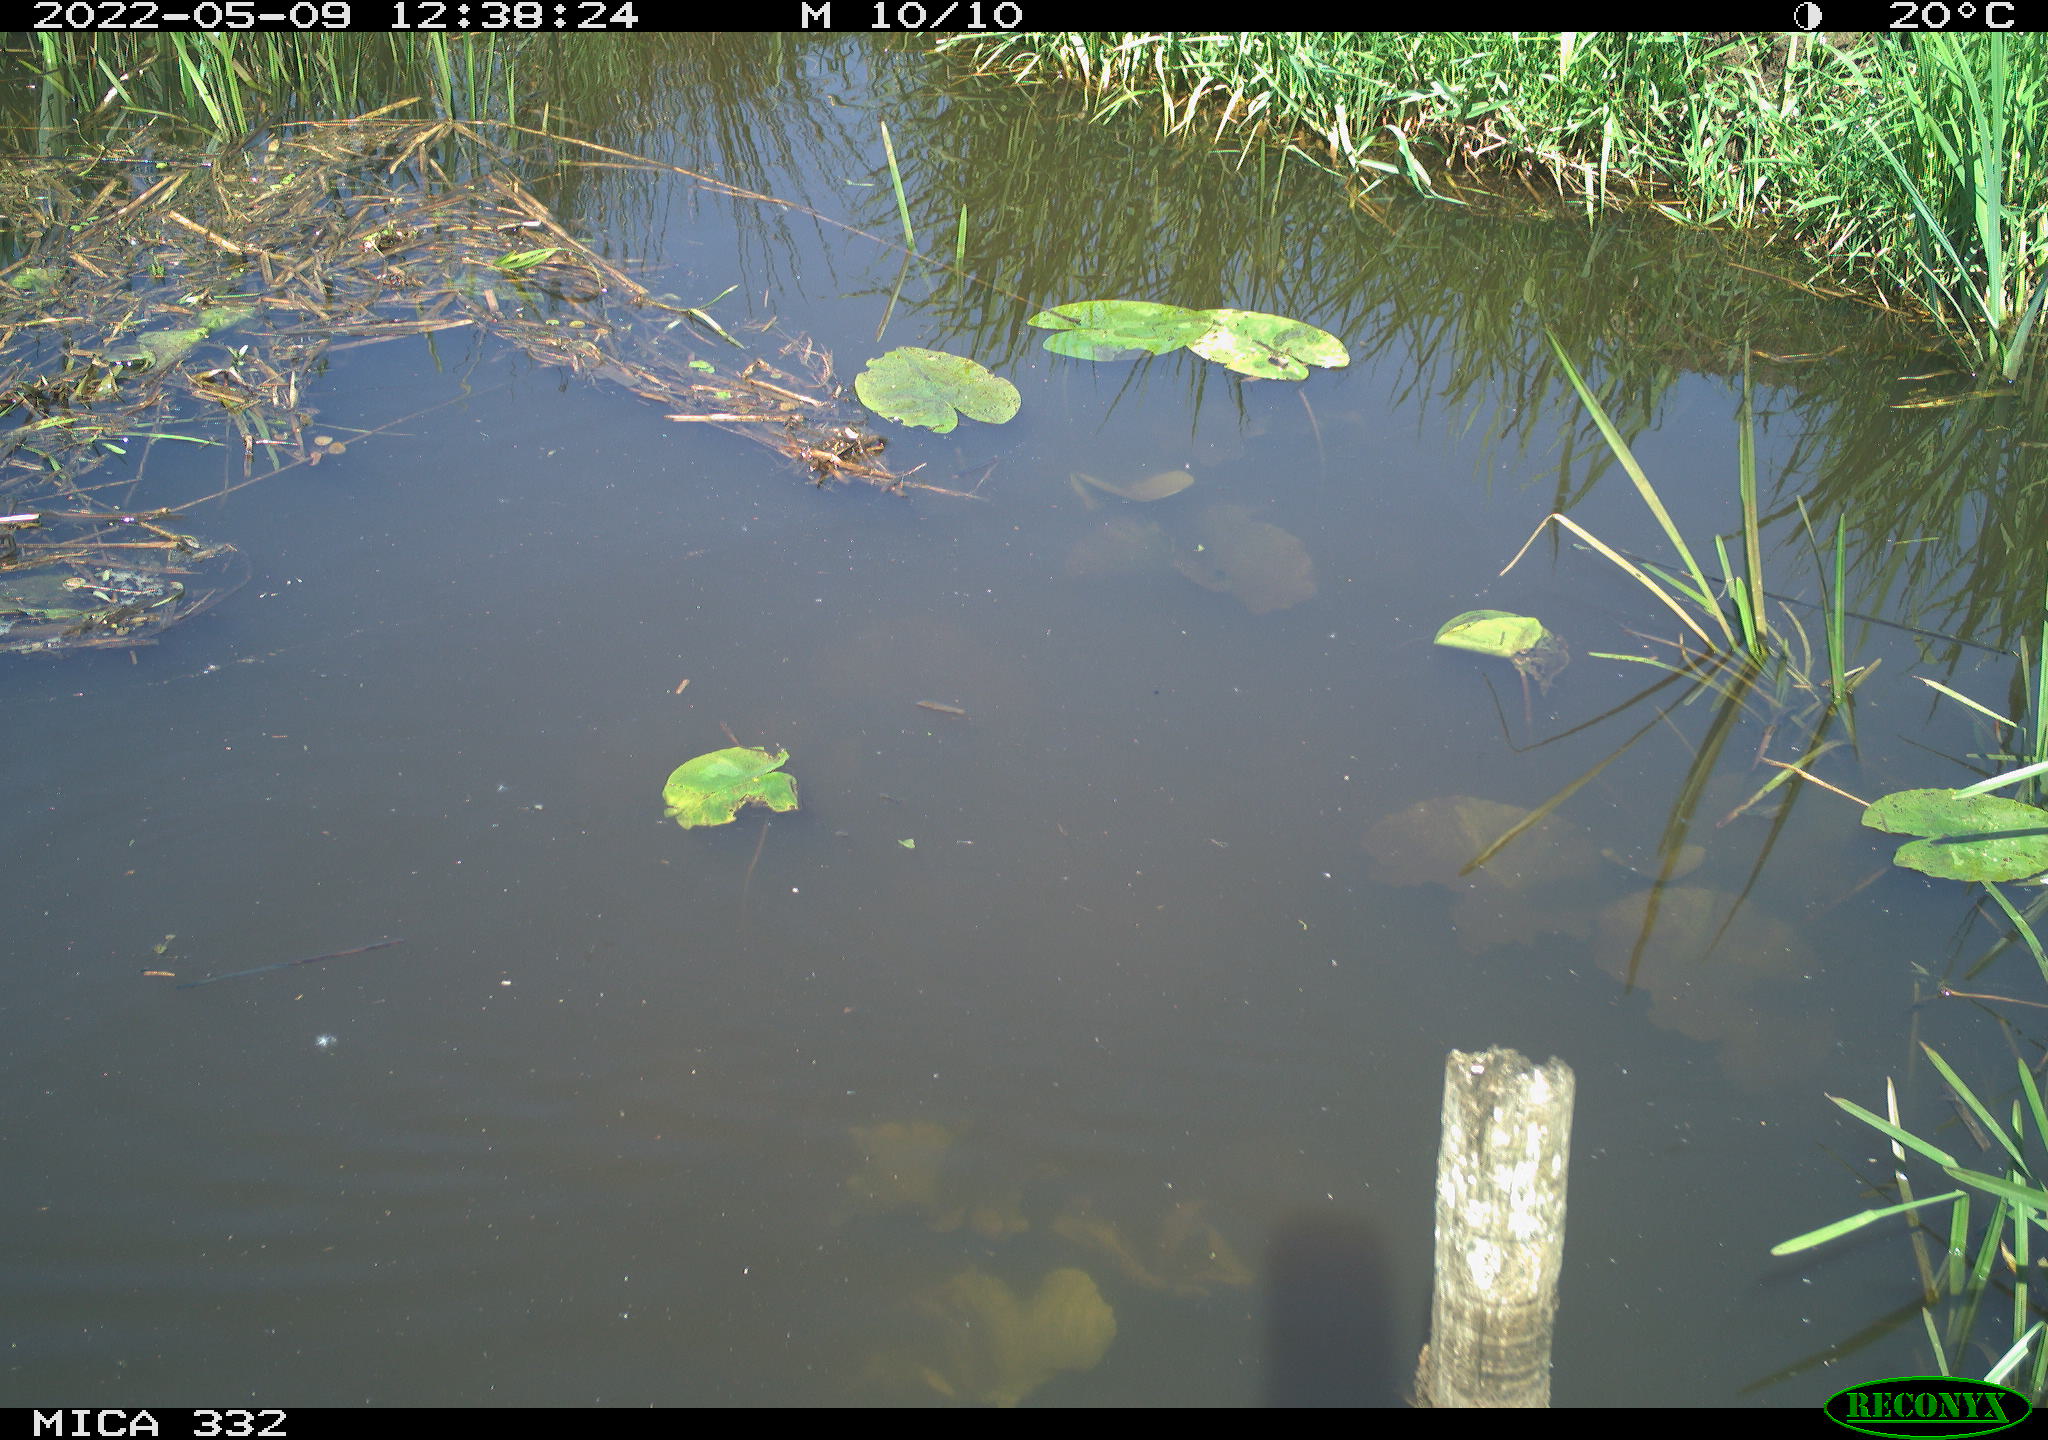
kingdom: Animalia
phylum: Chordata
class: Aves
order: Anseriformes
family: Anatidae
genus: Anas
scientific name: Anas platyrhynchos
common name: Mallard
